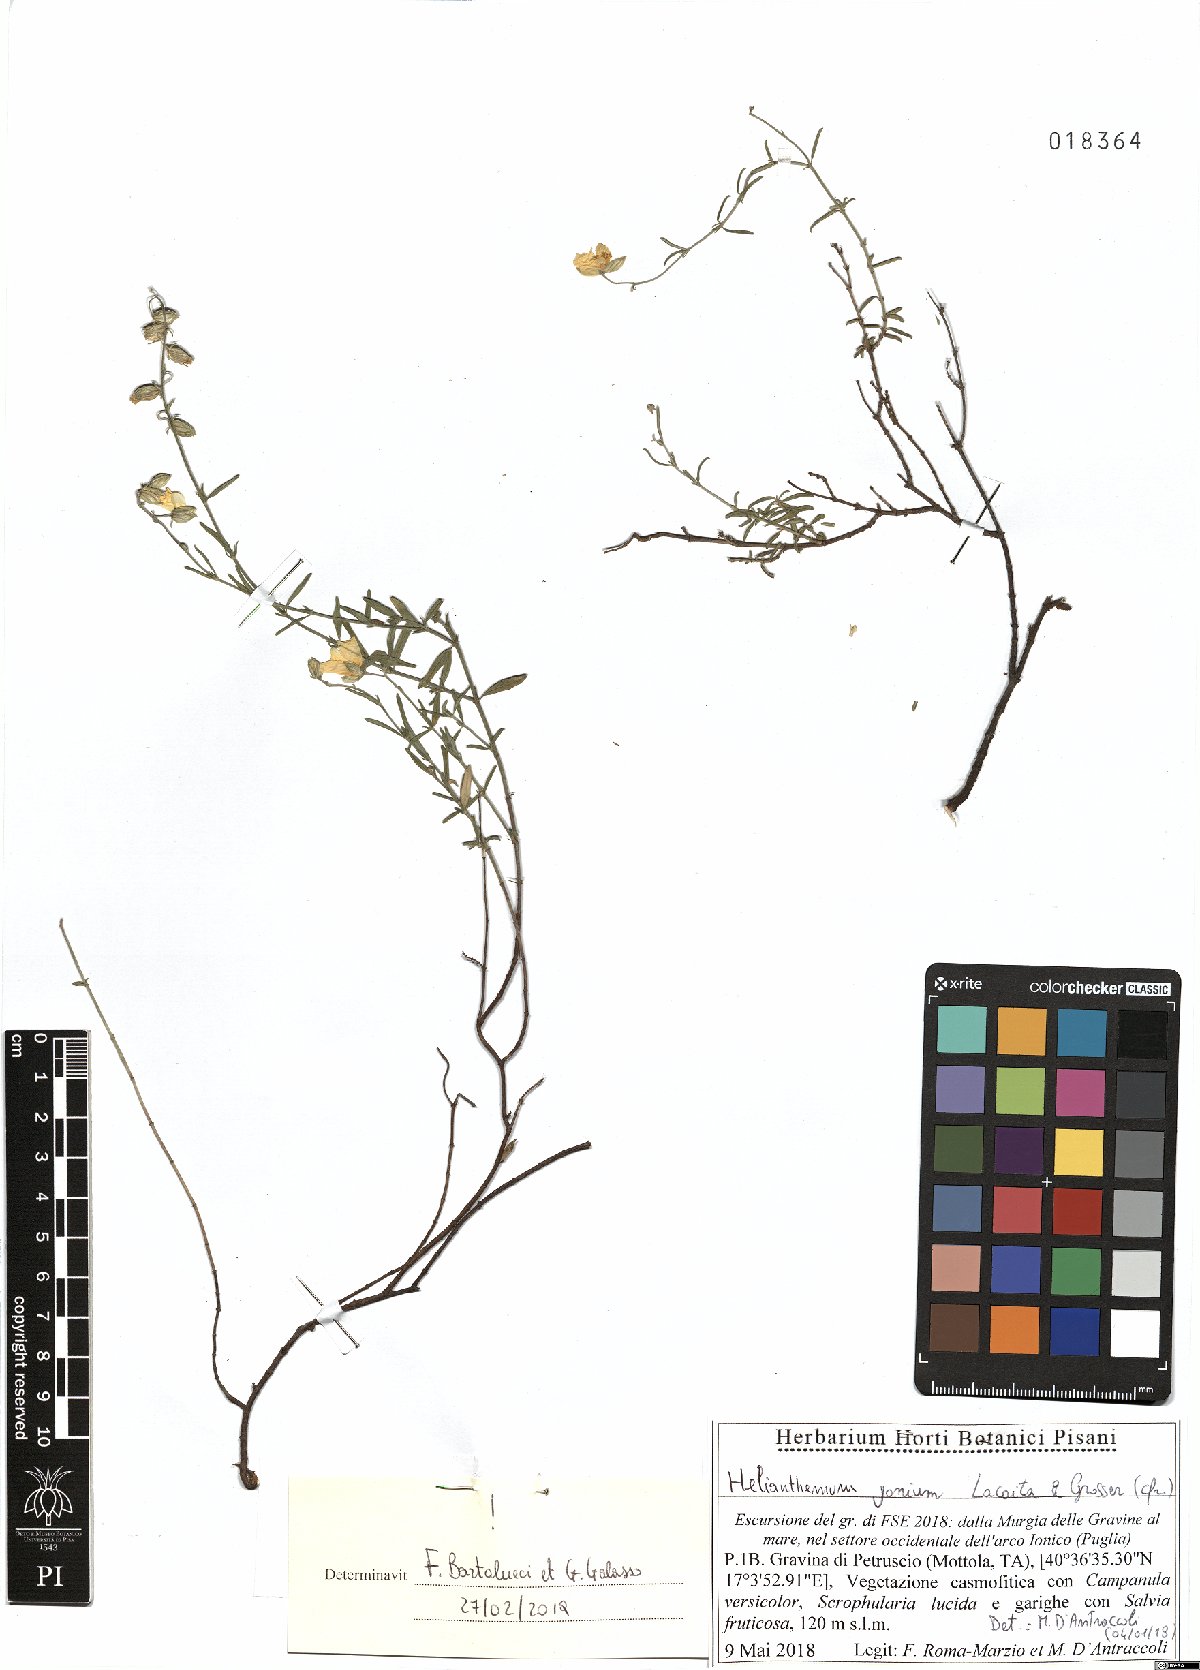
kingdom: Plantae
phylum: Tracheophyta
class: Magnoliopsida
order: Malvales
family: Cistaceae
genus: Helianthemum
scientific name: Helianthemum leptophyllum
